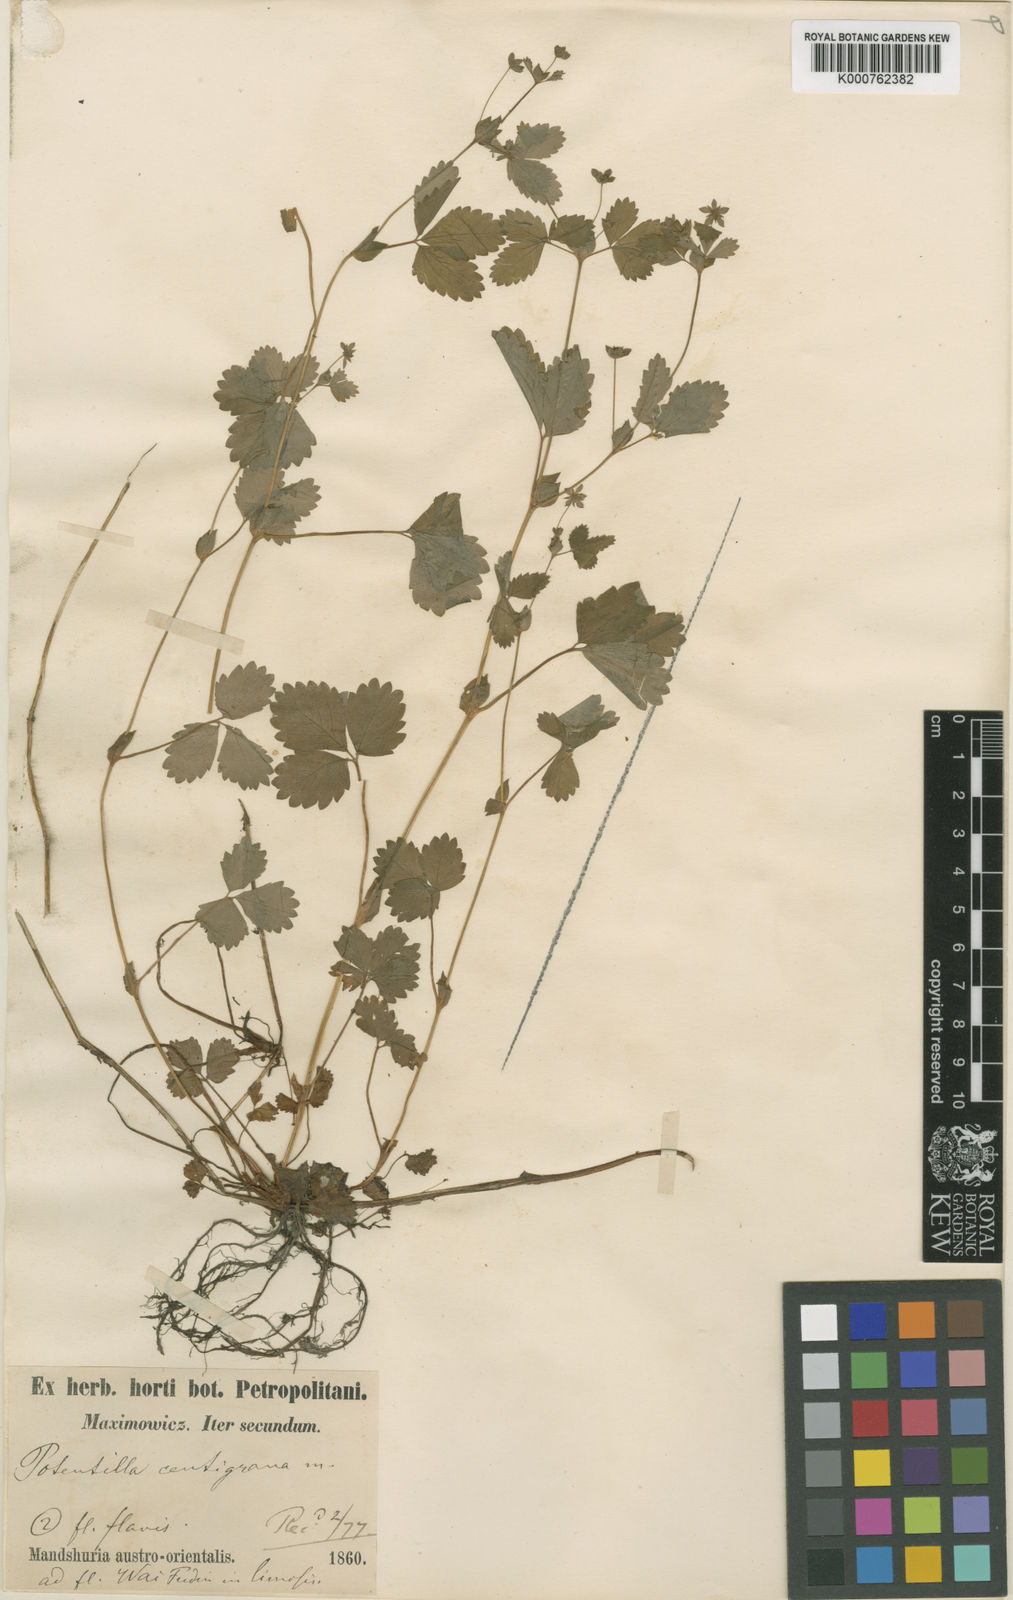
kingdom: Plantae
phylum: Tracheophyta
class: Magnoliopsida
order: Rosales
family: Rosaceae
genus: Potentilla
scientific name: Potentilla centigrana
